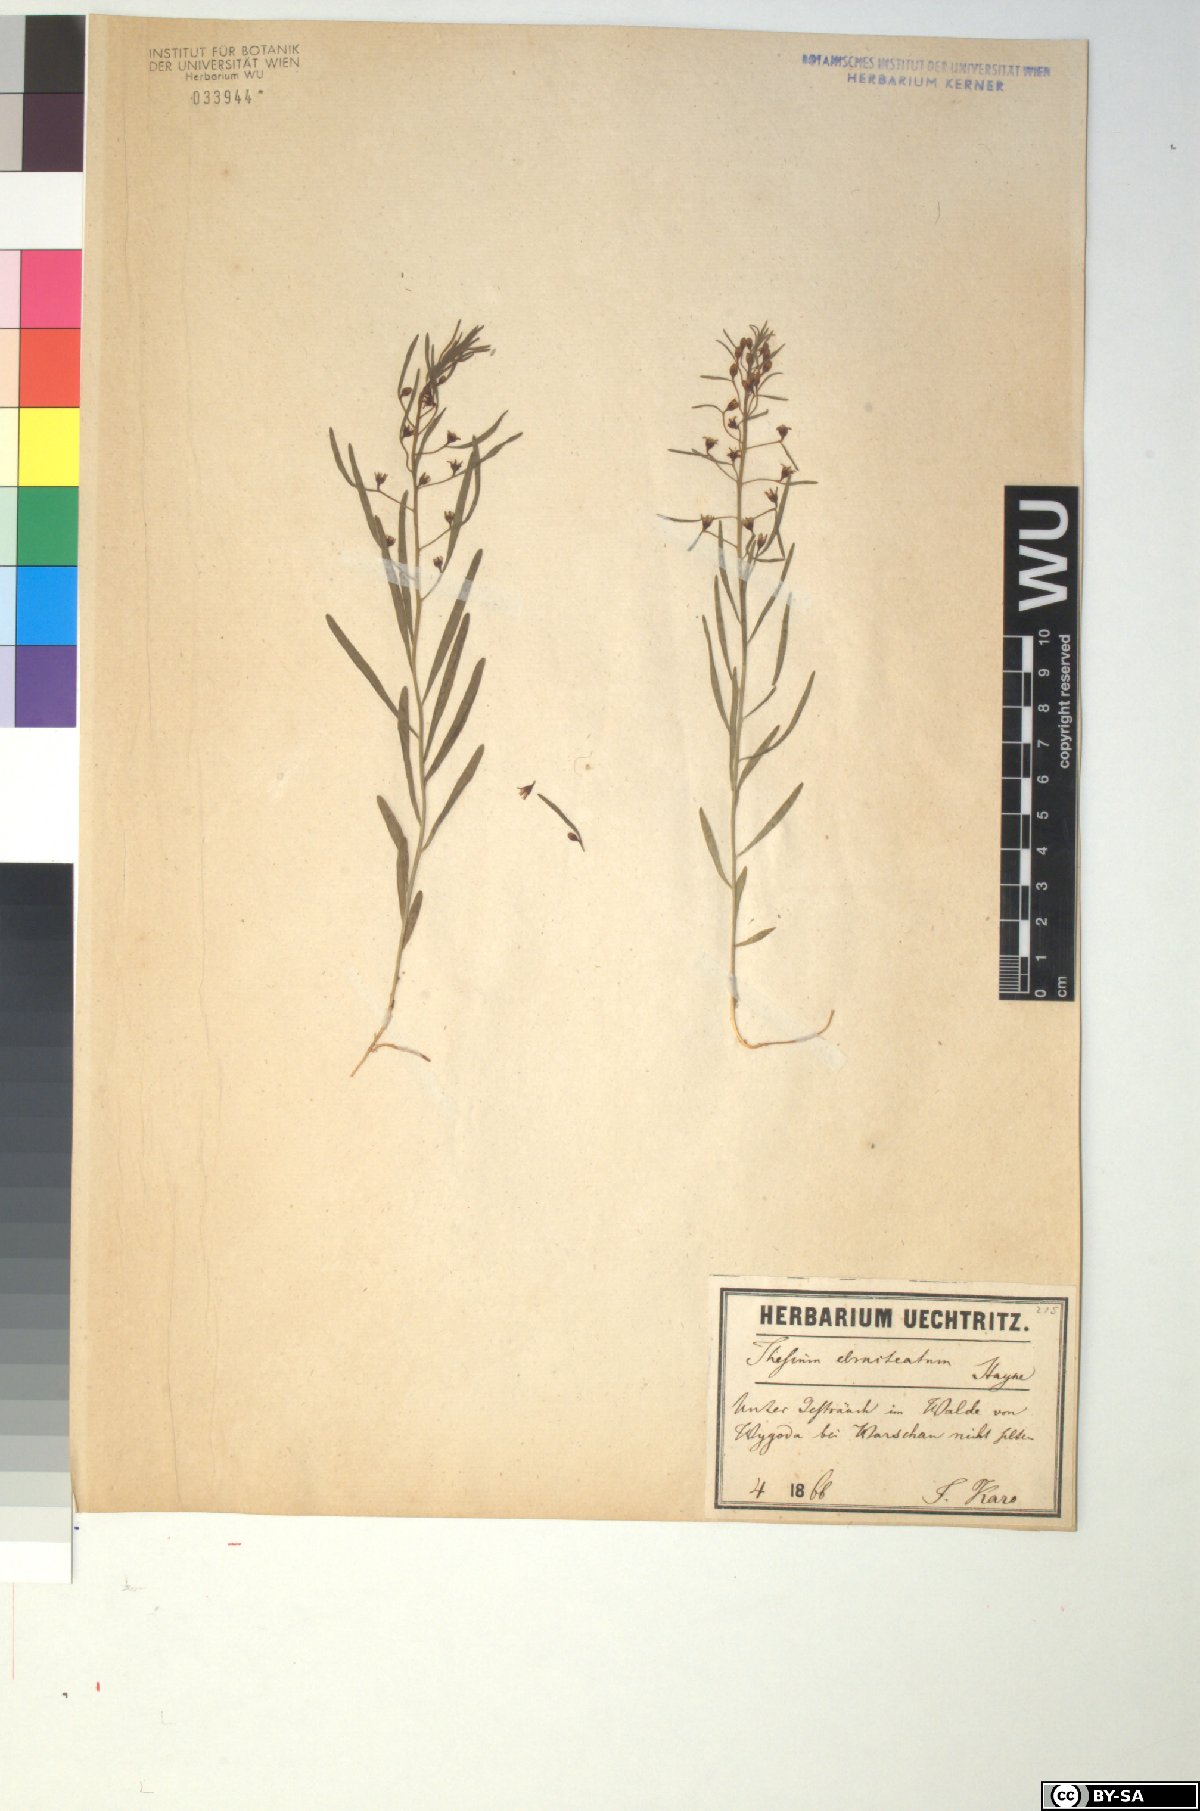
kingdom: Plantae
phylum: Tracheophyta
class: Magnoliopsida
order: Santalales
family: Thesiaceae
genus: Thesium
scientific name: Thesium ebracteatum
